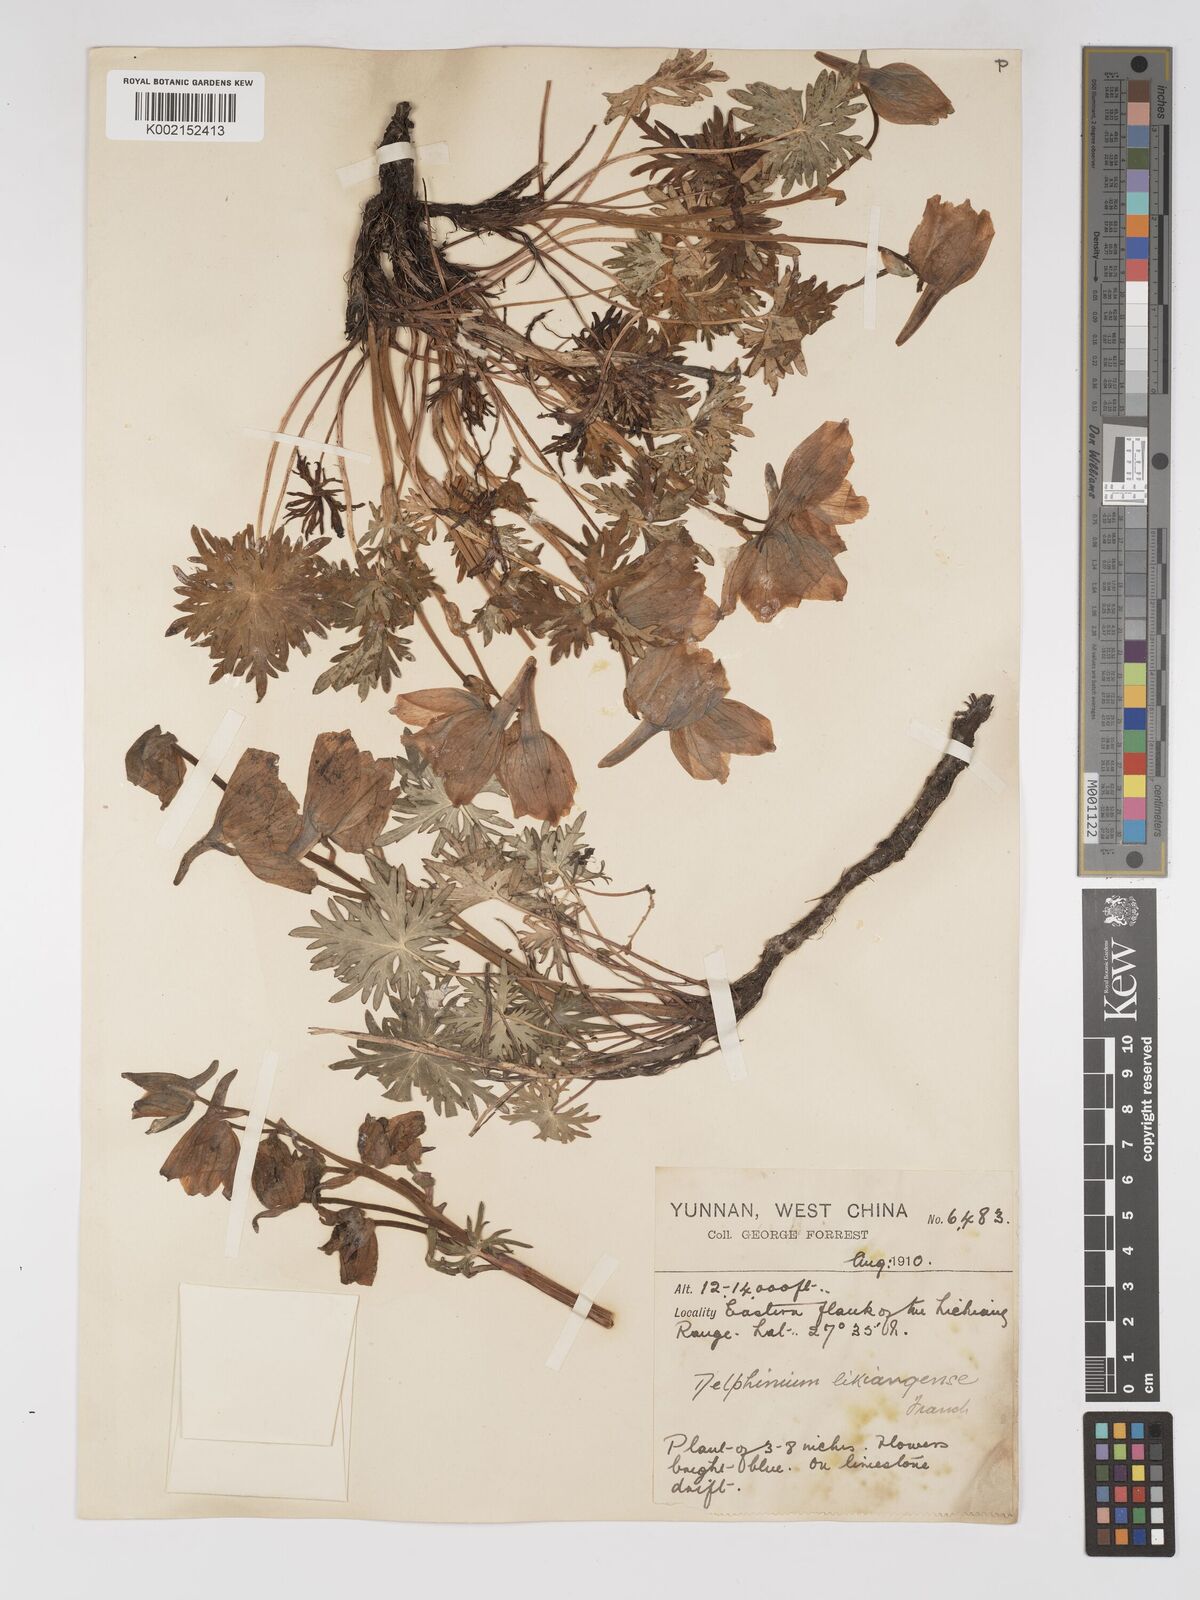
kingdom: Plantae
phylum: Tracheophyta
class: Magnoliopsida
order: Ranunculales
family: Ranunculaceae
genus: Delphinium
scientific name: Delphinium likiangense
